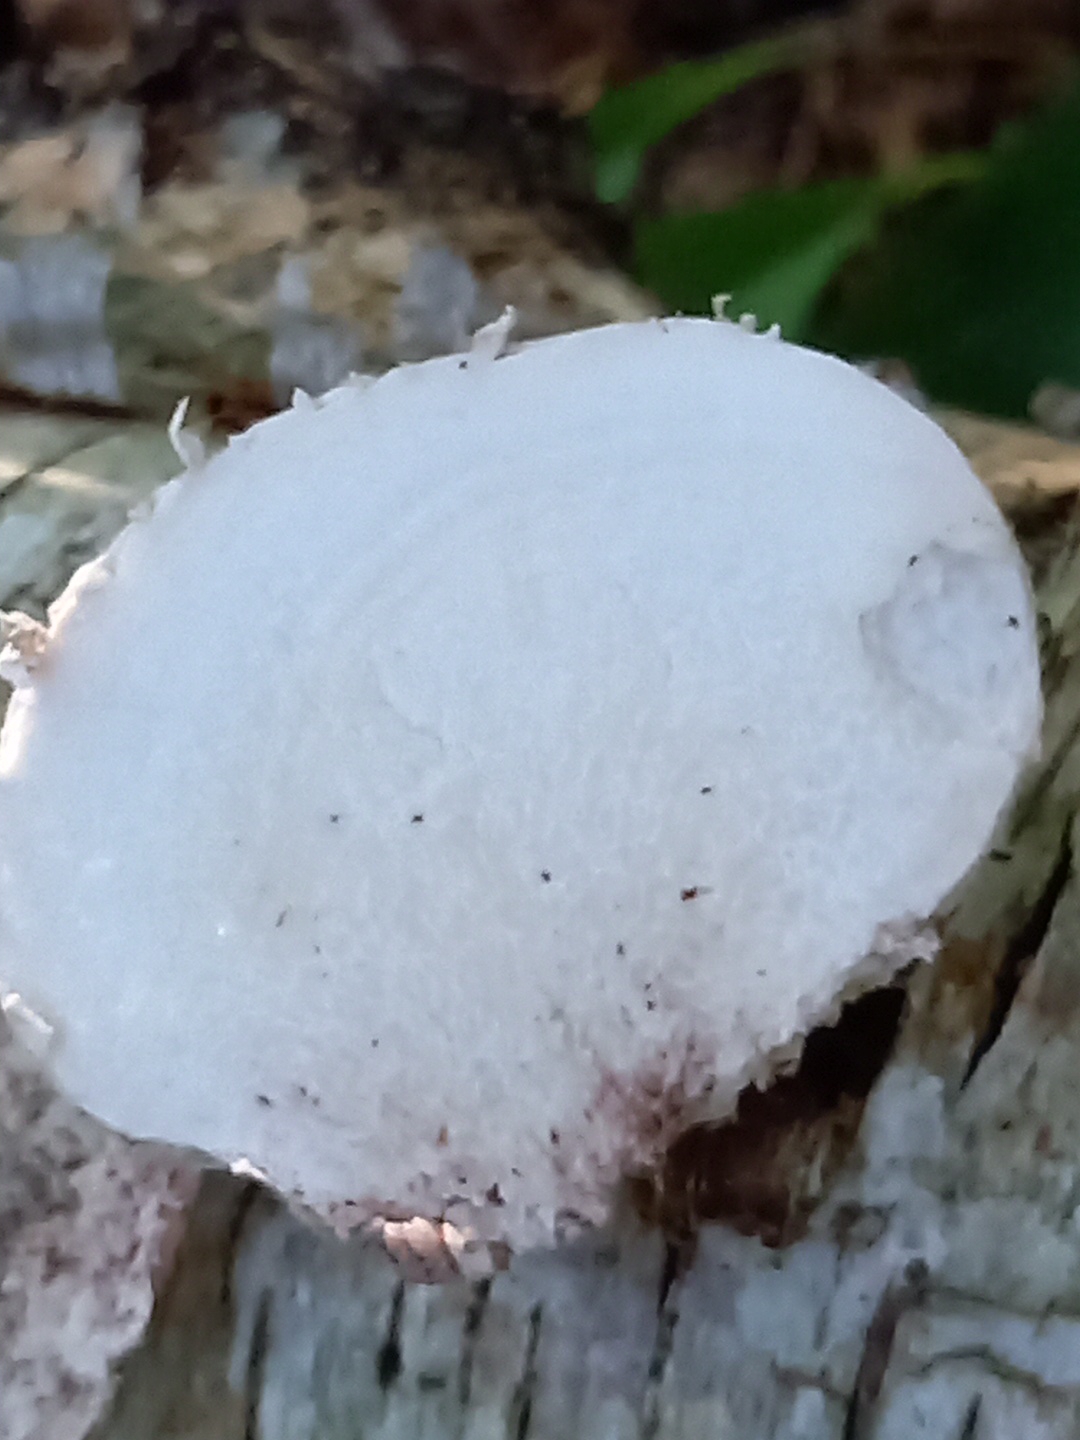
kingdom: Fungi
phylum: Basidiomycota
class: Agaricomycetes
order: Polyporales
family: Fomitopsidaceae
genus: Fomitopsis
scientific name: Fomitopsis betulina
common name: birkeporesvamp
